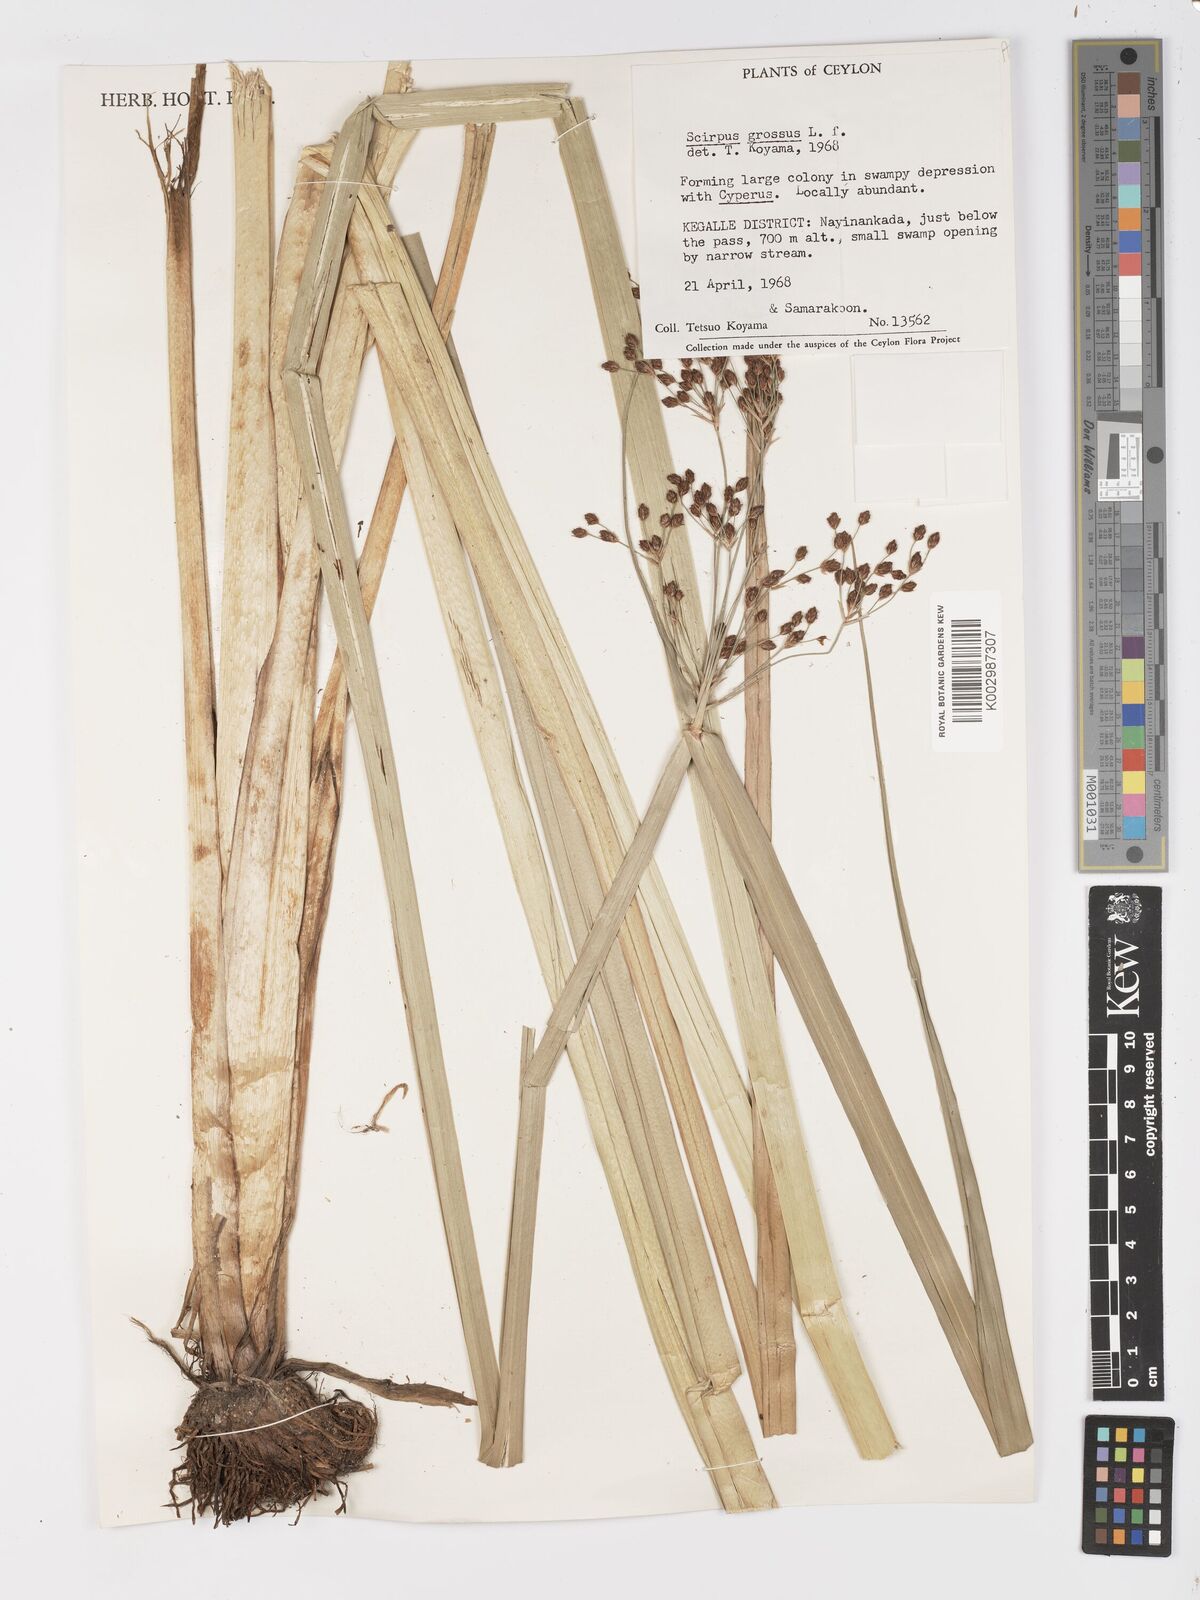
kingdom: Plantae
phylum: Tracheophyta
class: Liliopsida
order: Poales
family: Cyperaceae
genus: Actinoscirpus
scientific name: Actinoscirpus grossus
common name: Giant bur rush
